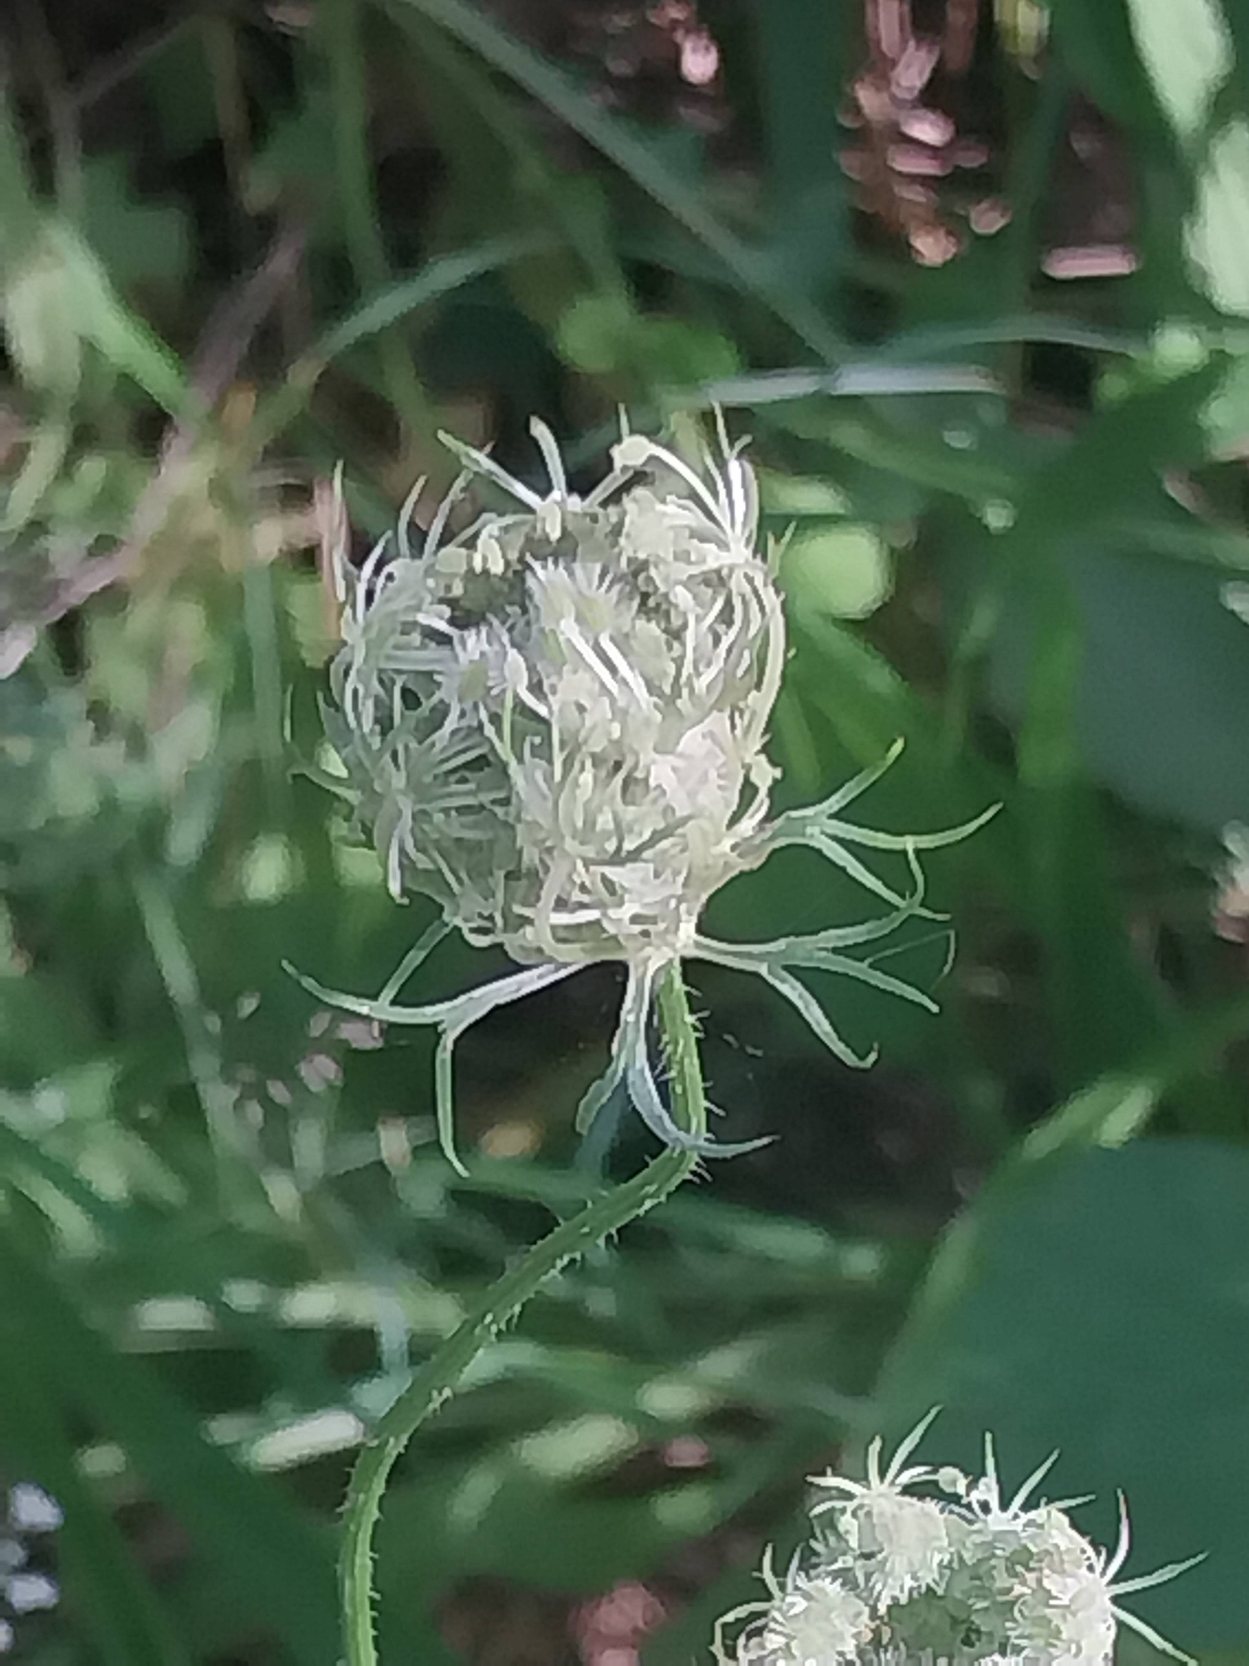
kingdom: Plantae
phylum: Tracheophyta
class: Magnoliopsida
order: Apiales
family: Apiaceae
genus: Daucus
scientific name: Daucus carota
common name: Gulerod
